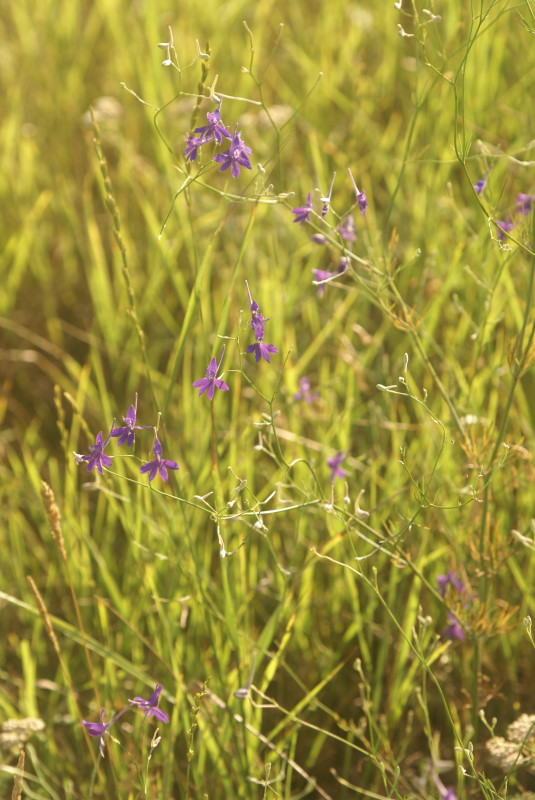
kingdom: Plantae
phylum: Tracheophyta
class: Magnoliopsida
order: Ranunculales
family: Ranunculaceae
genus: Delphinium
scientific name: Delphinium consolida
